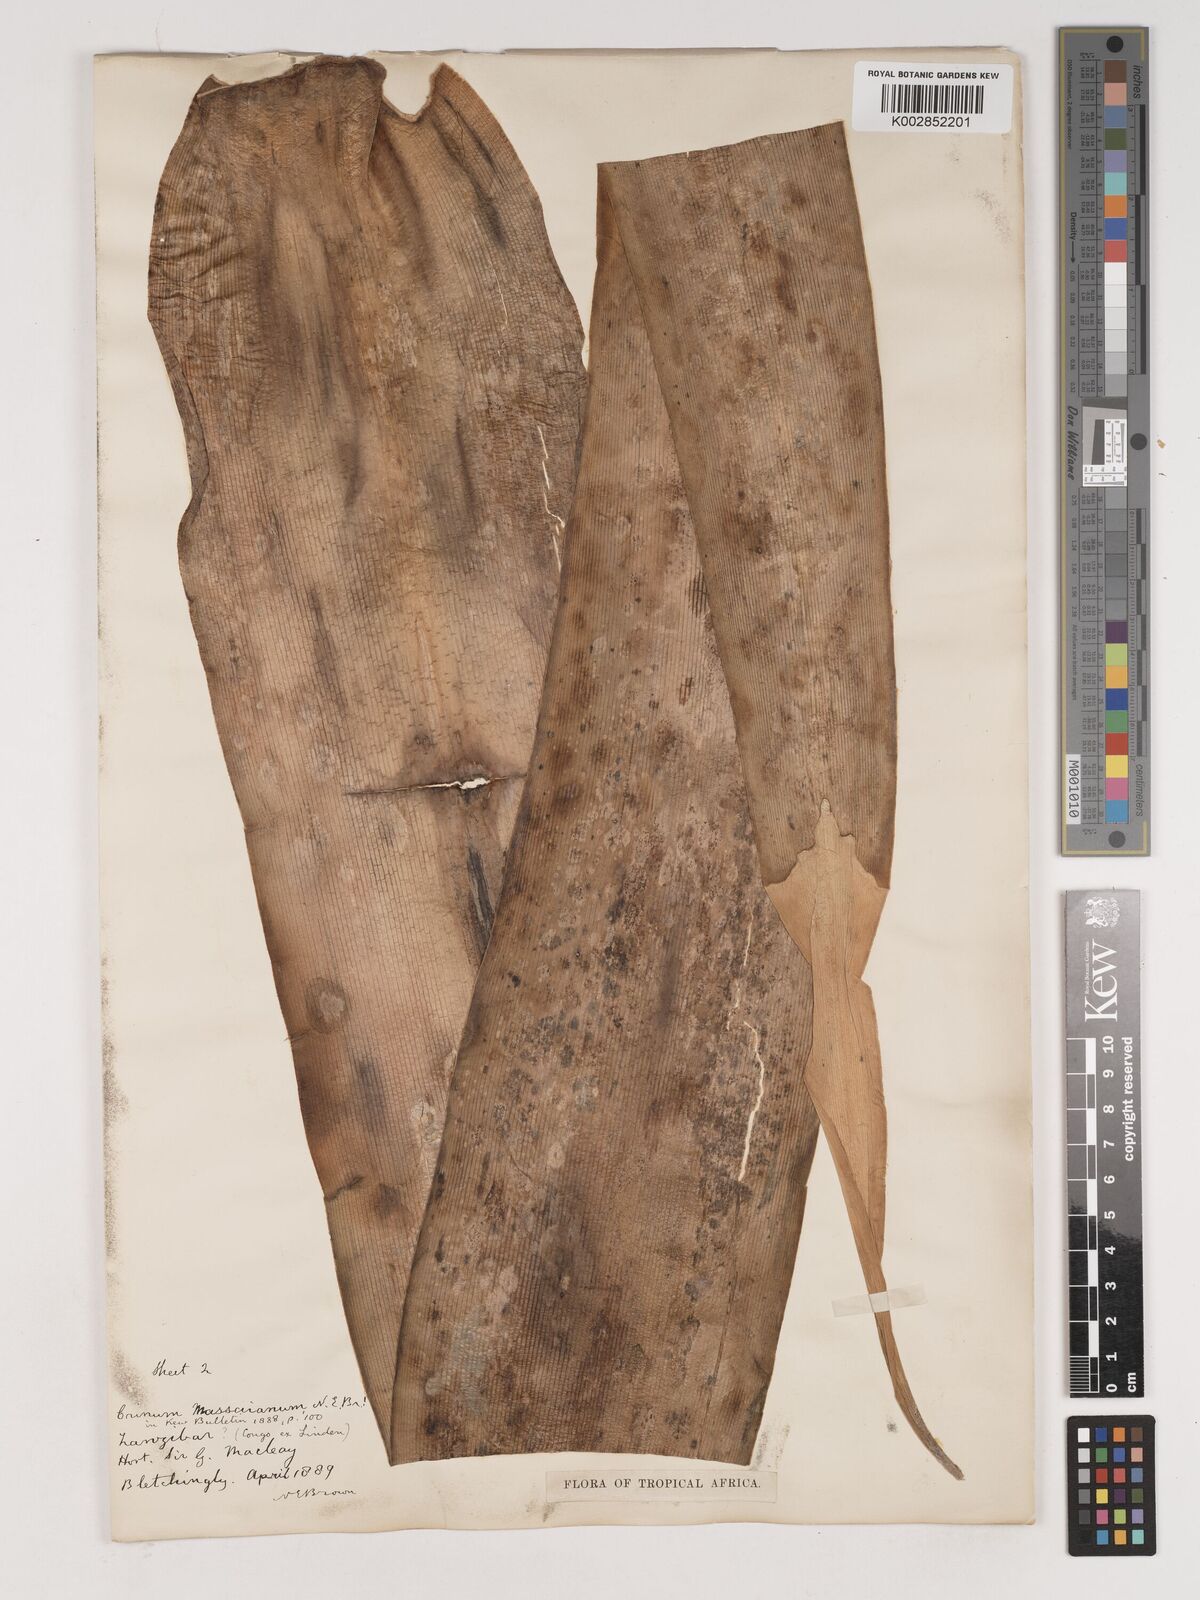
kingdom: Plantae
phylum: Tracheophyta
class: Liliopsida
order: Asparagales
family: Amaryllidaceae
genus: Crinum
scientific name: Crinum ornatum
